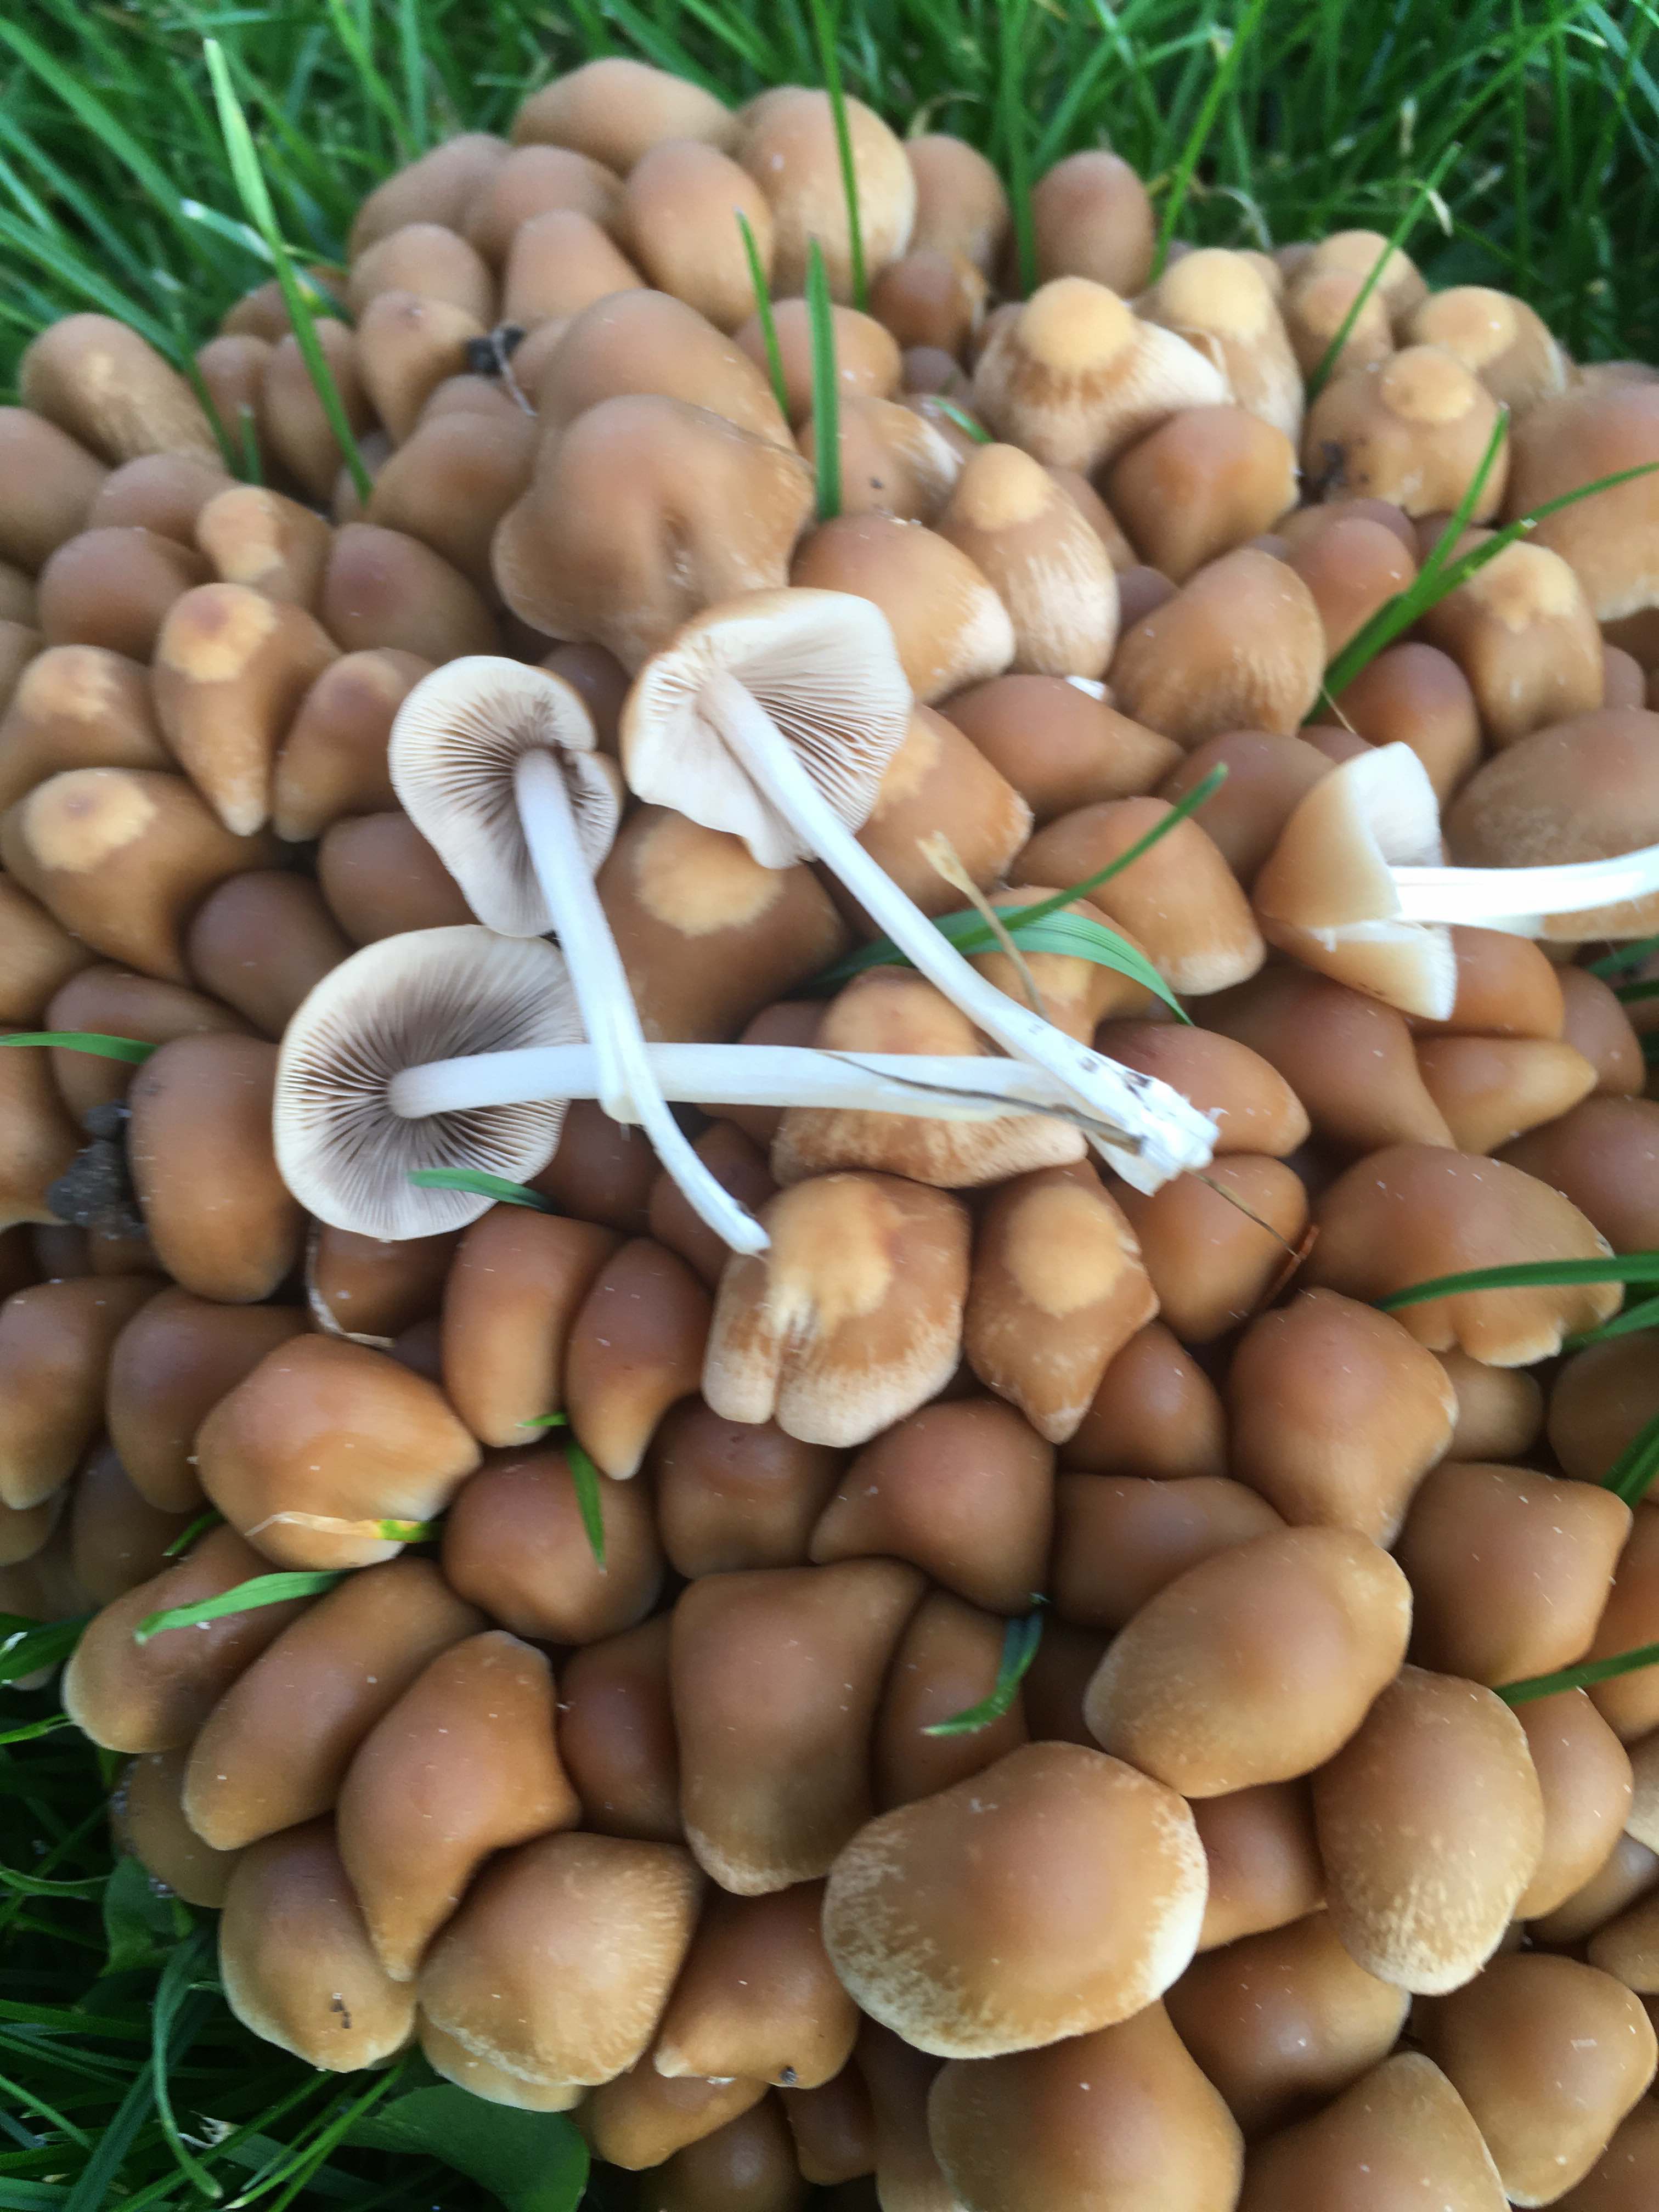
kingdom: Fungi
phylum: Basidiomycota
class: Agaricomycetes
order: Agaricales
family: Psathyrellaceae
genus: Britzelmayria
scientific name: Britzelmayria multipedata
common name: knippe-mørkhat
